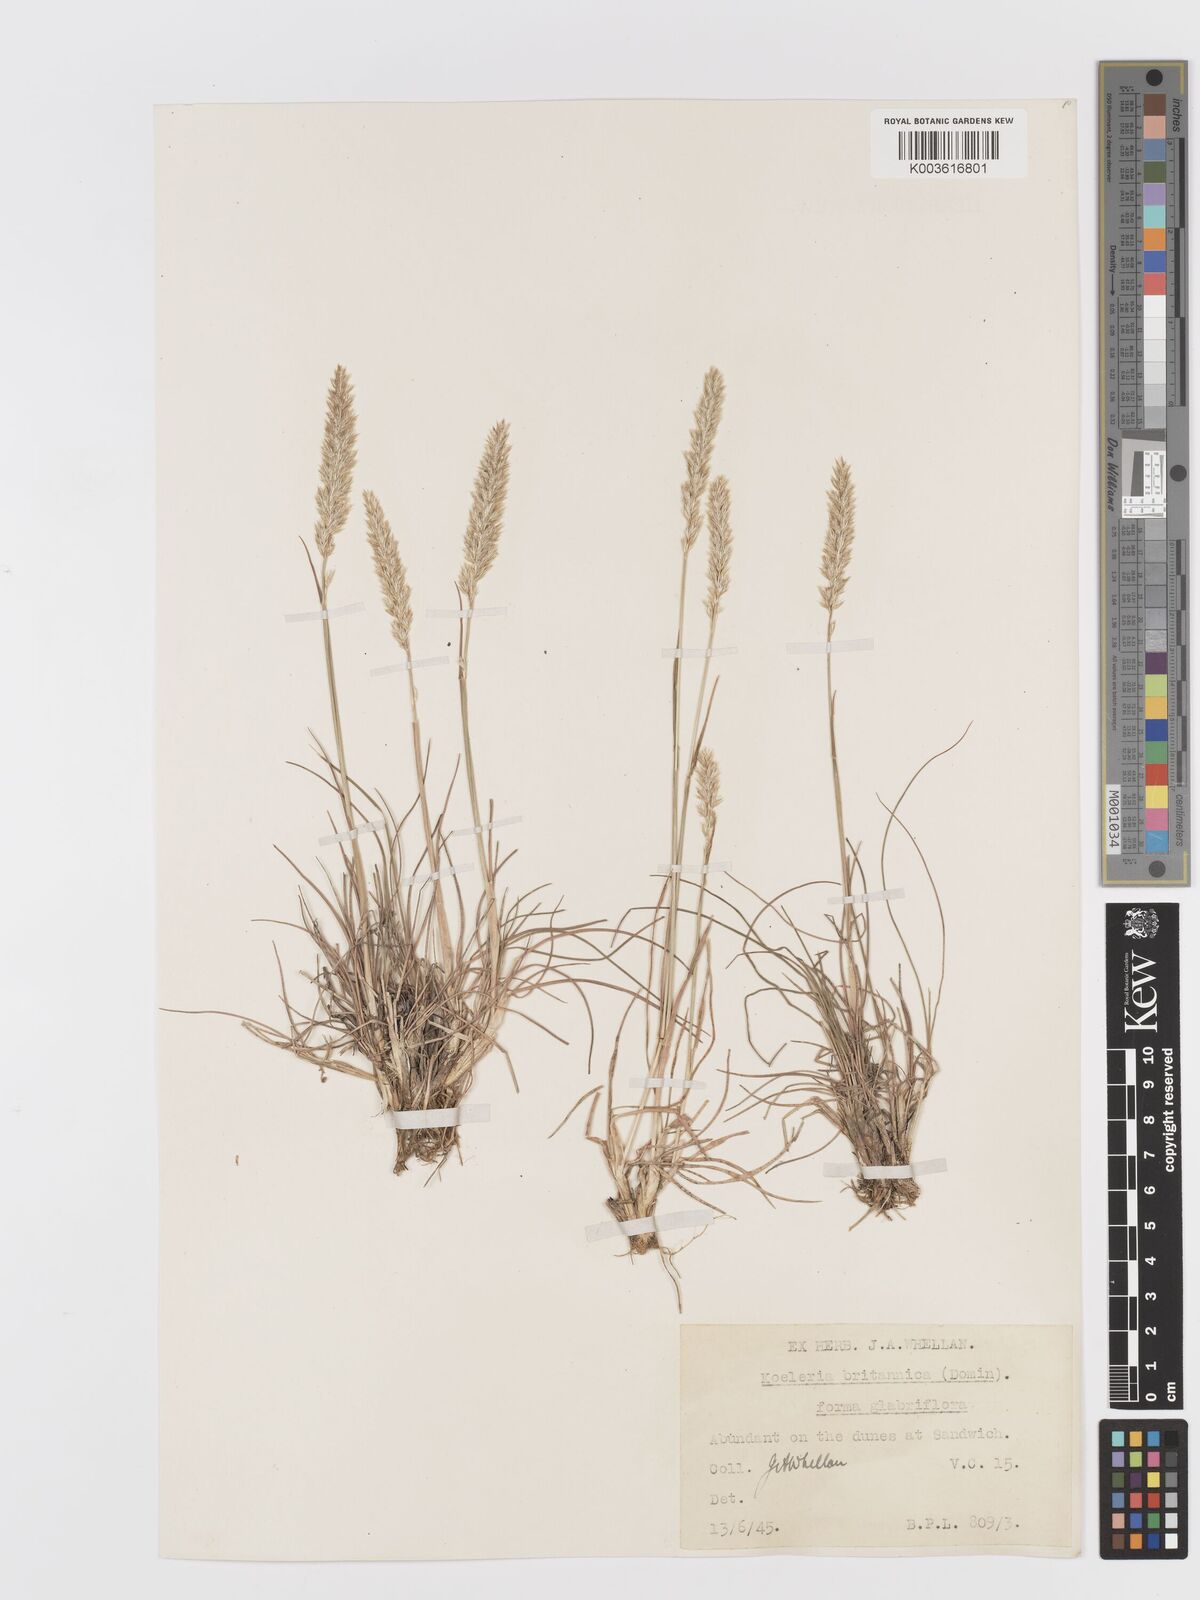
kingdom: Plantae
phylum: Tracheophyta
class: Liliopsida
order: Poales
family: Poaceae
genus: Koeleria
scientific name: Koeleria macrantha
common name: Crested hair-grass
